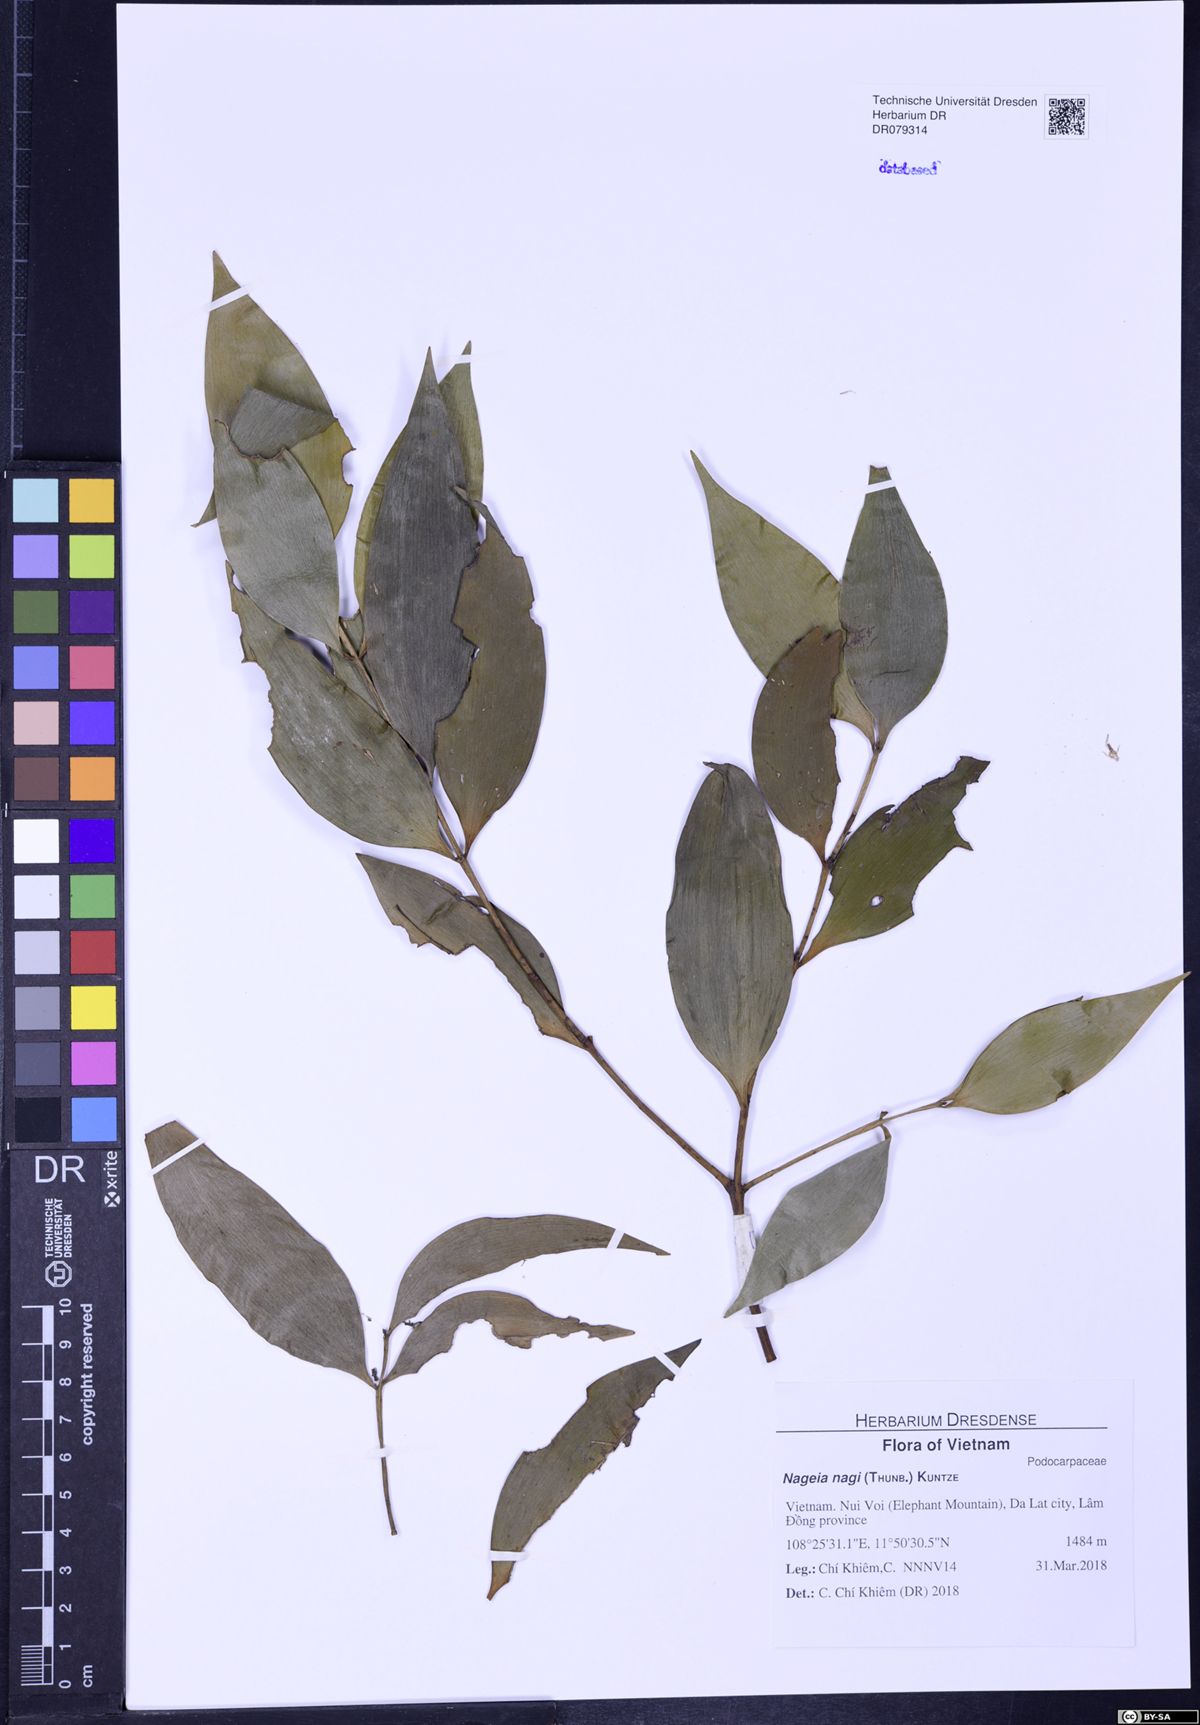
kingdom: Plantae
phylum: Tracheophyta
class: Pinopsida
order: Pinales
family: Podocarpaceae
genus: Nageia
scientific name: Nageia nagi
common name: Kaphal
